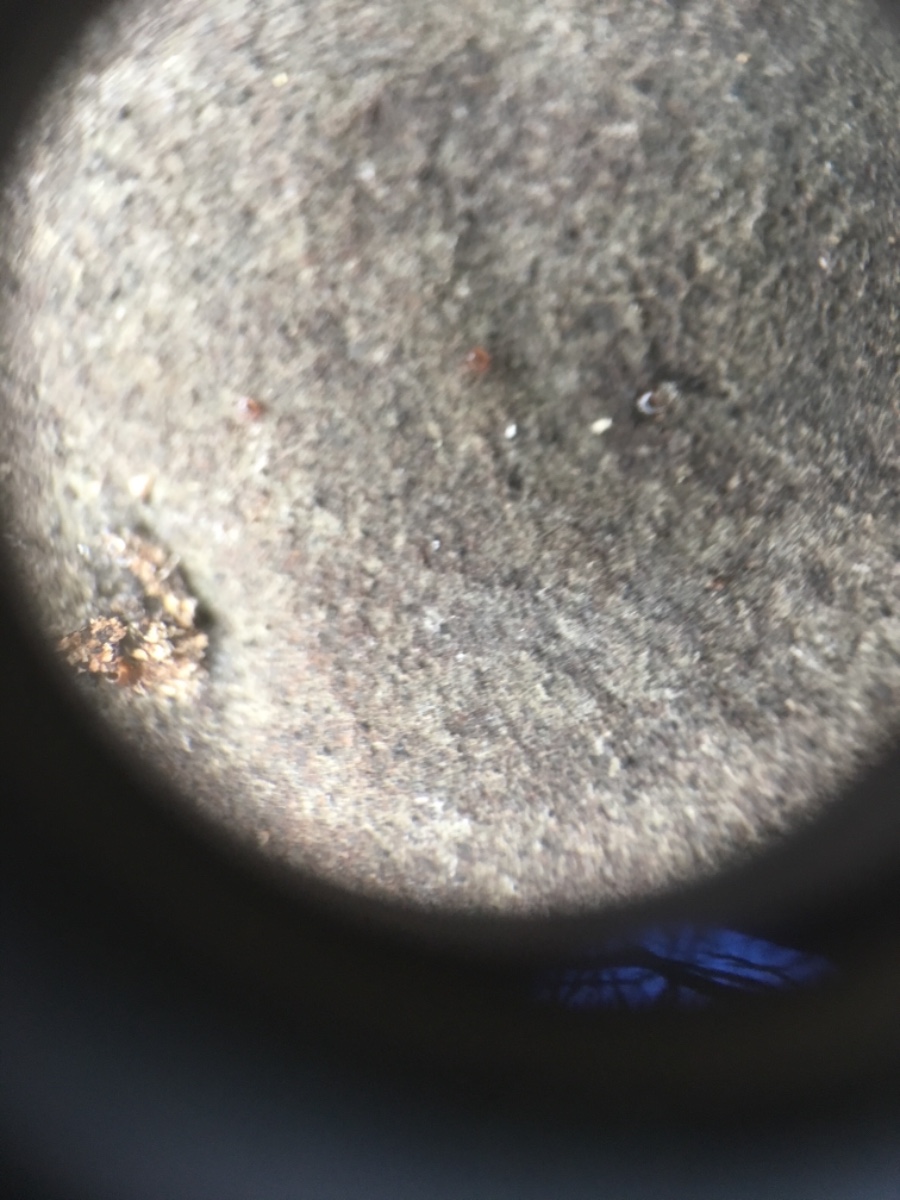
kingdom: Fungi
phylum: Ascomycota
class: Sordariomycetes
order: Xylariales
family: Hypoxylaceae
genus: Hypoxylon
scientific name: Hypoxylon
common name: kulbær
